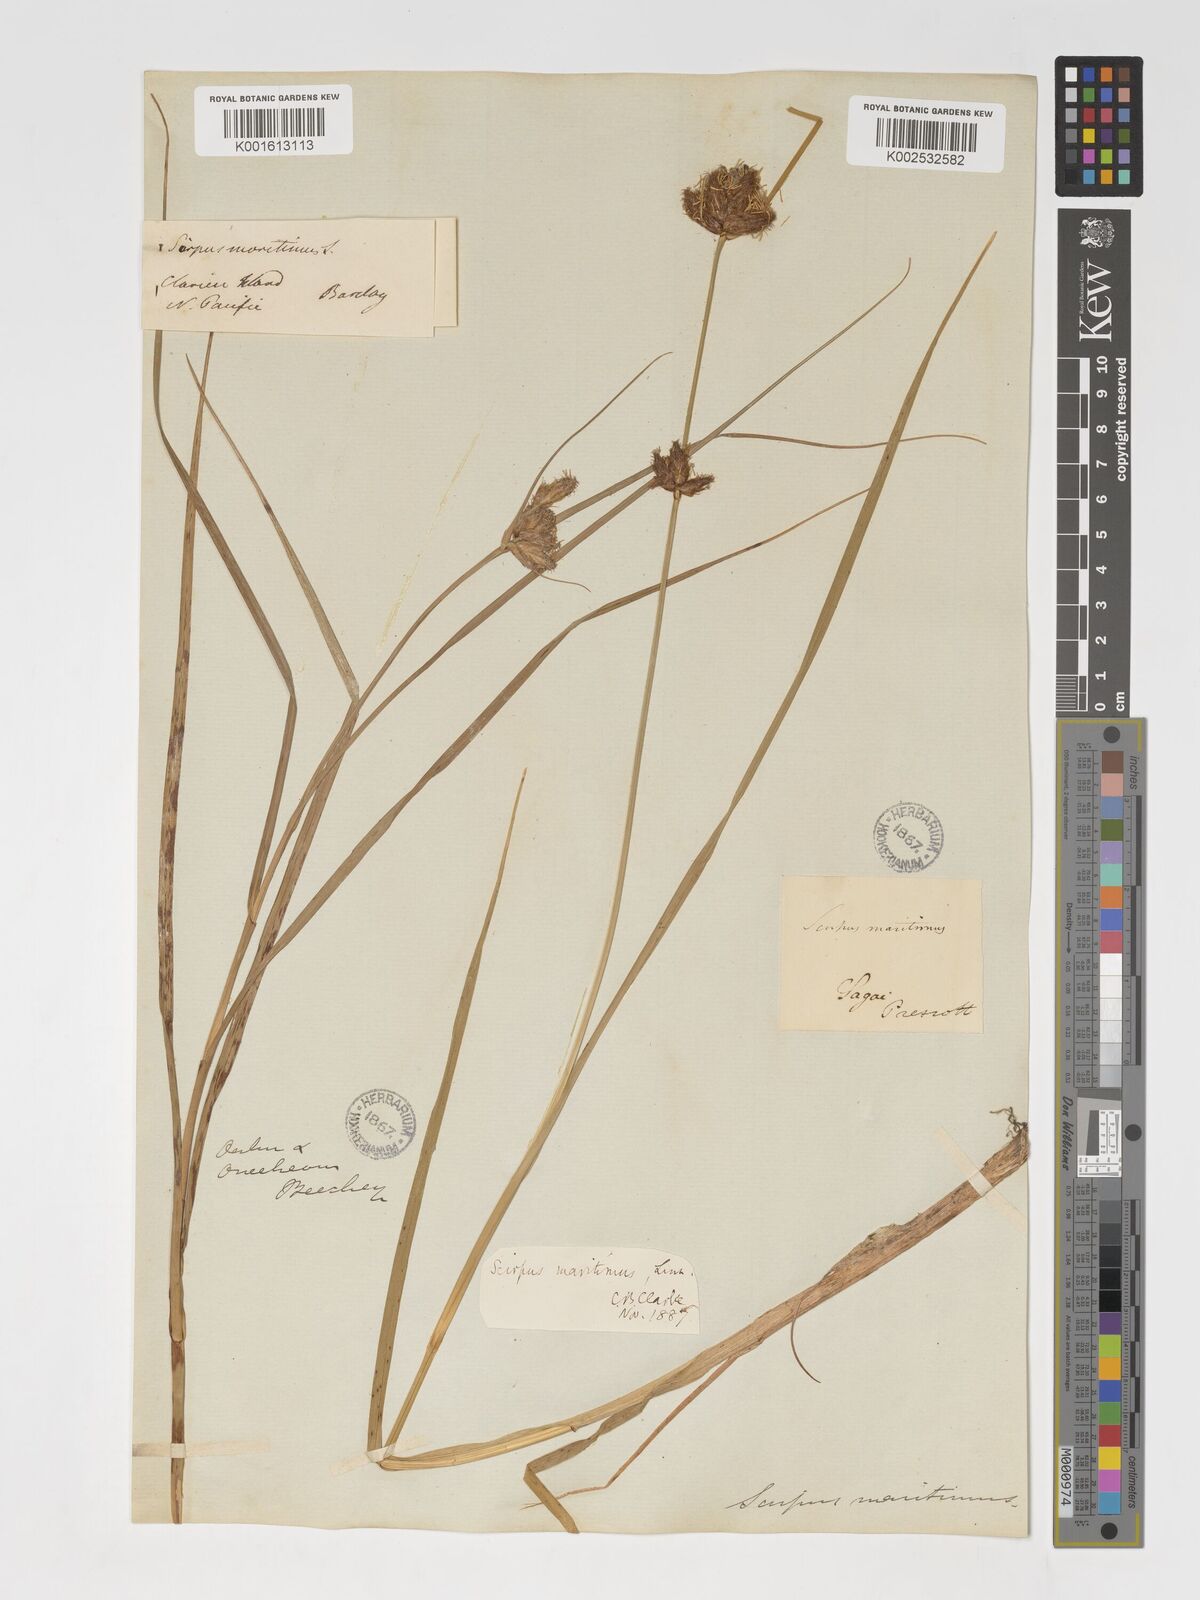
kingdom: Plantae
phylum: Tracheophyta
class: Liliopsida
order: Poales
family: Cyperaceae
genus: Bolboschoenus
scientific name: Bolboschoenus maritimus
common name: Sea club-rush
